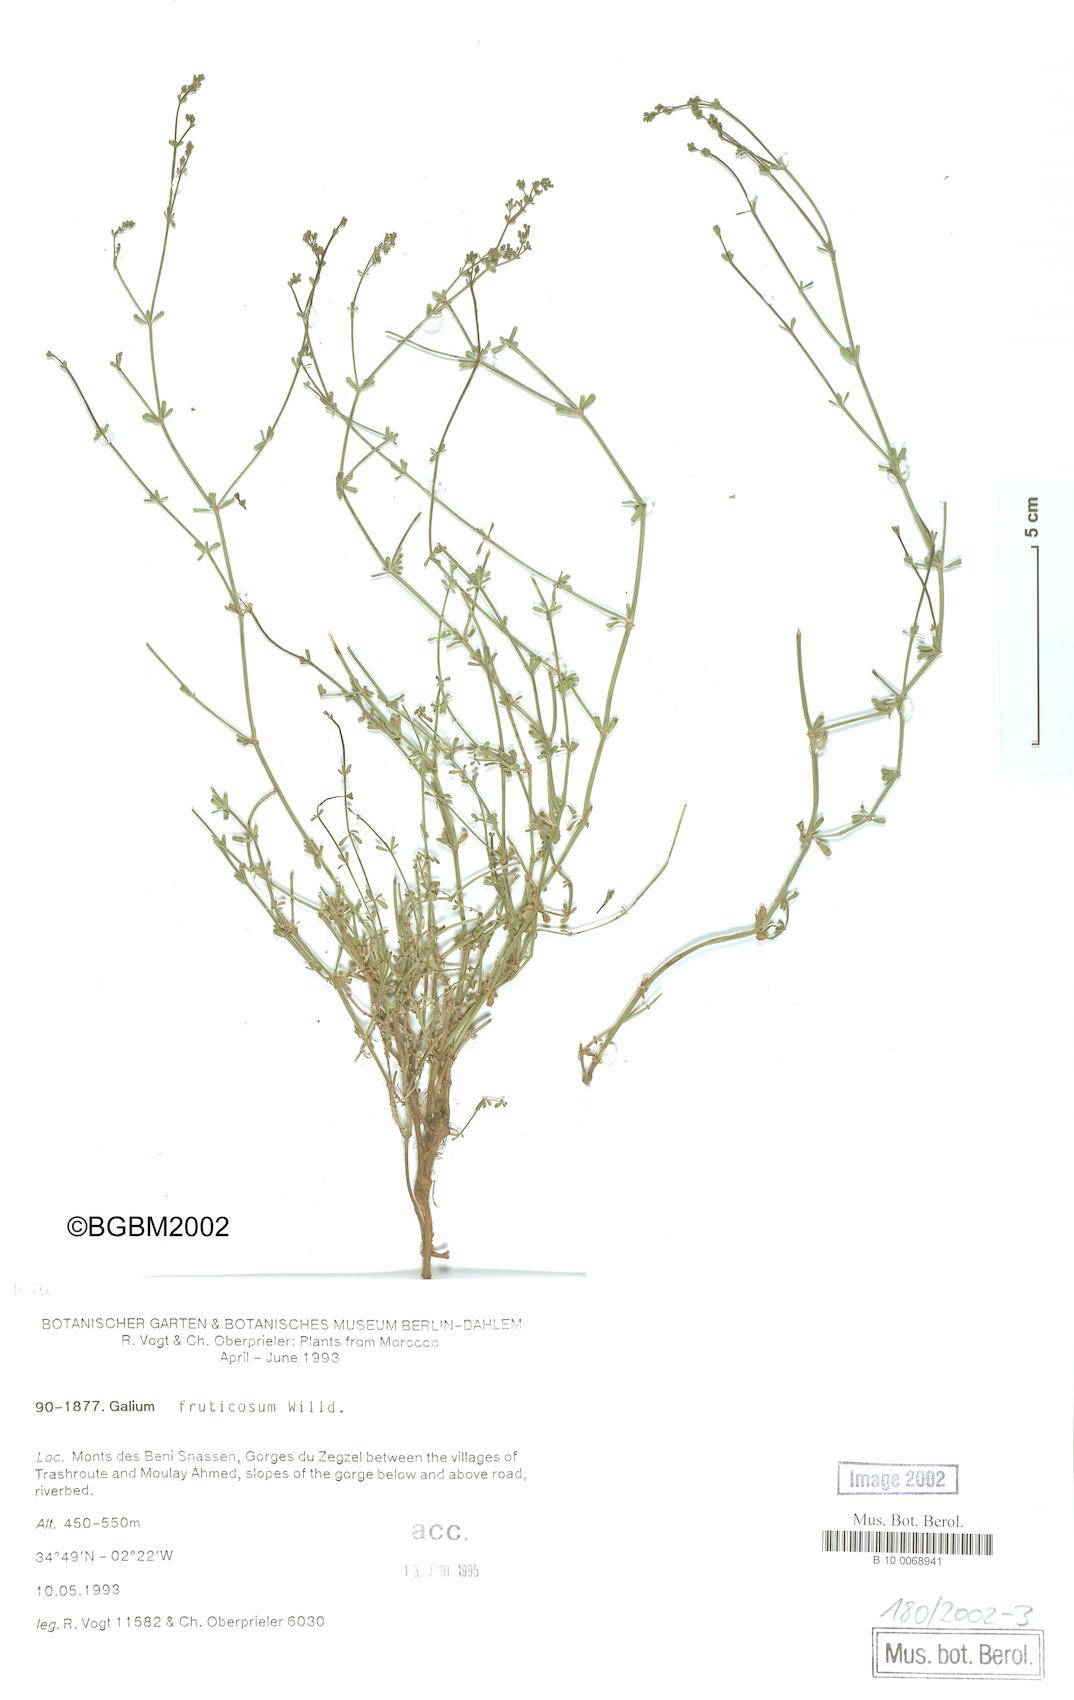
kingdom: Plantae
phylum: Tracheophyta
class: Magnoliopsida
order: Gentianales
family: Rubiaceae
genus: Galium
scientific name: Galium fruticosum
